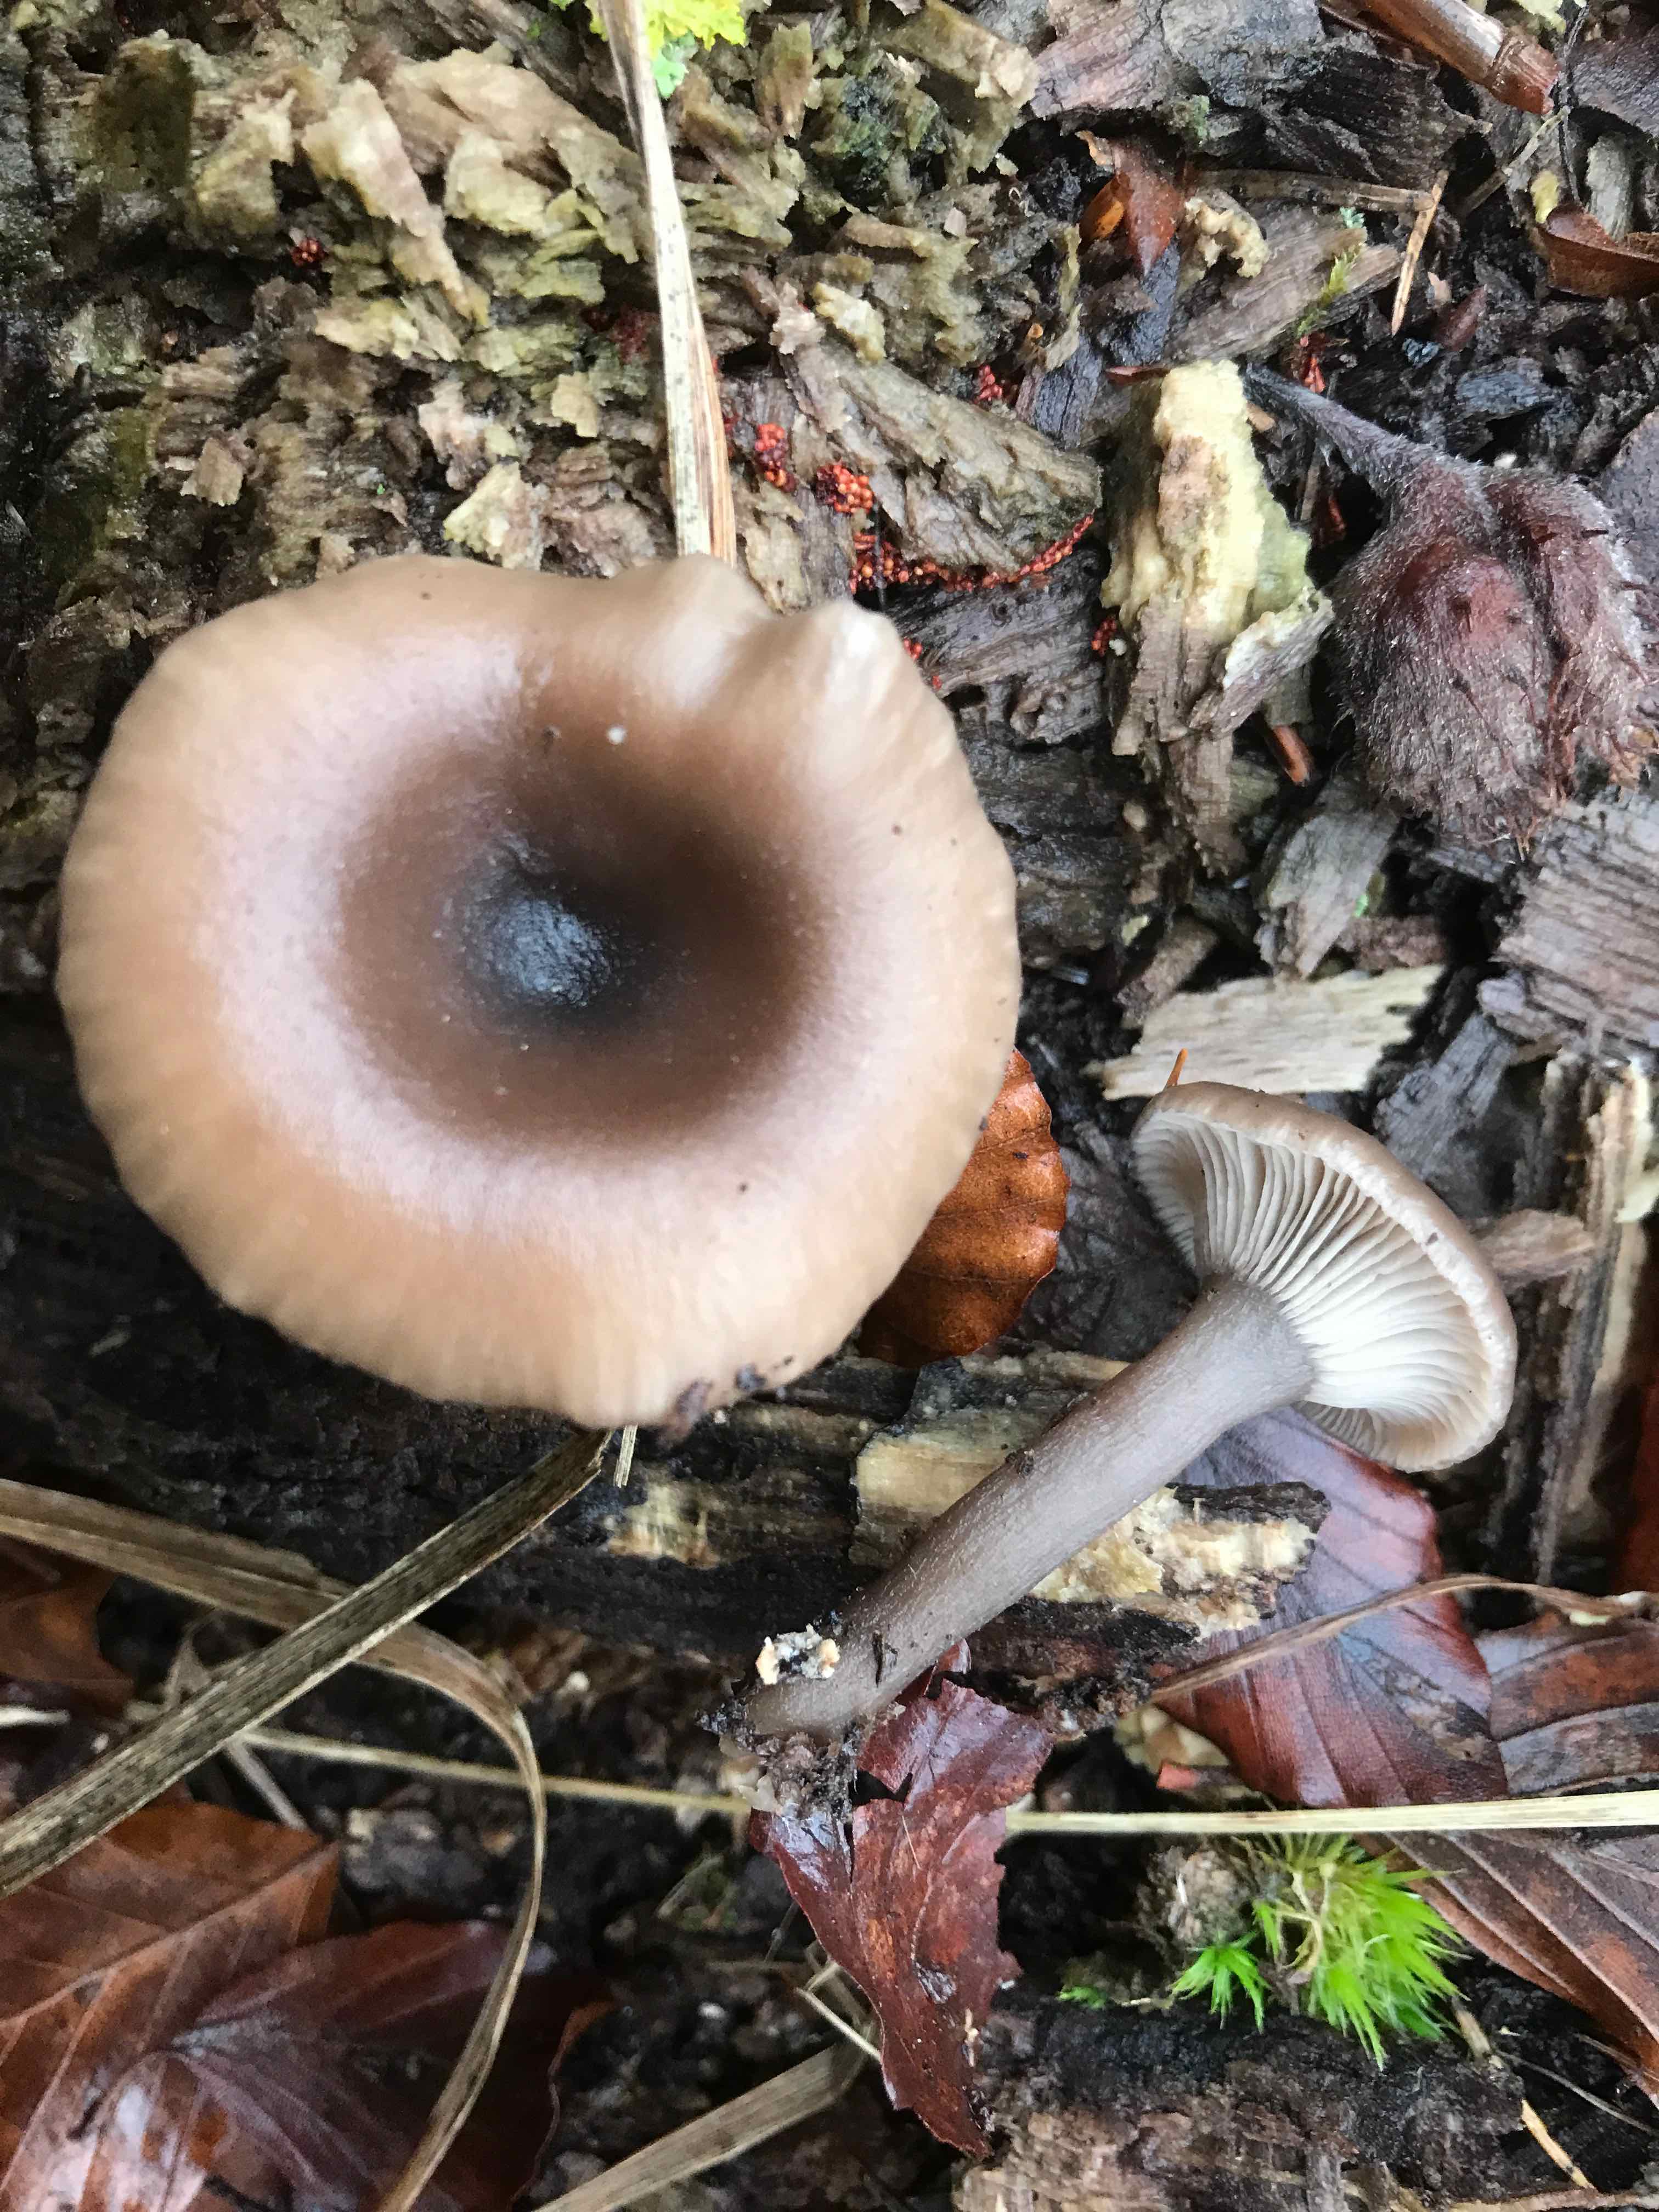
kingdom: Fungi
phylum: Basidiomycota
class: Agaricomycetes
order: Agaricales
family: Pseudoclitocybaceae
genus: Pseudoclitocybe
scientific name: Pseudoclitocybe cyathiformis
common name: almindelig bægertragthat
